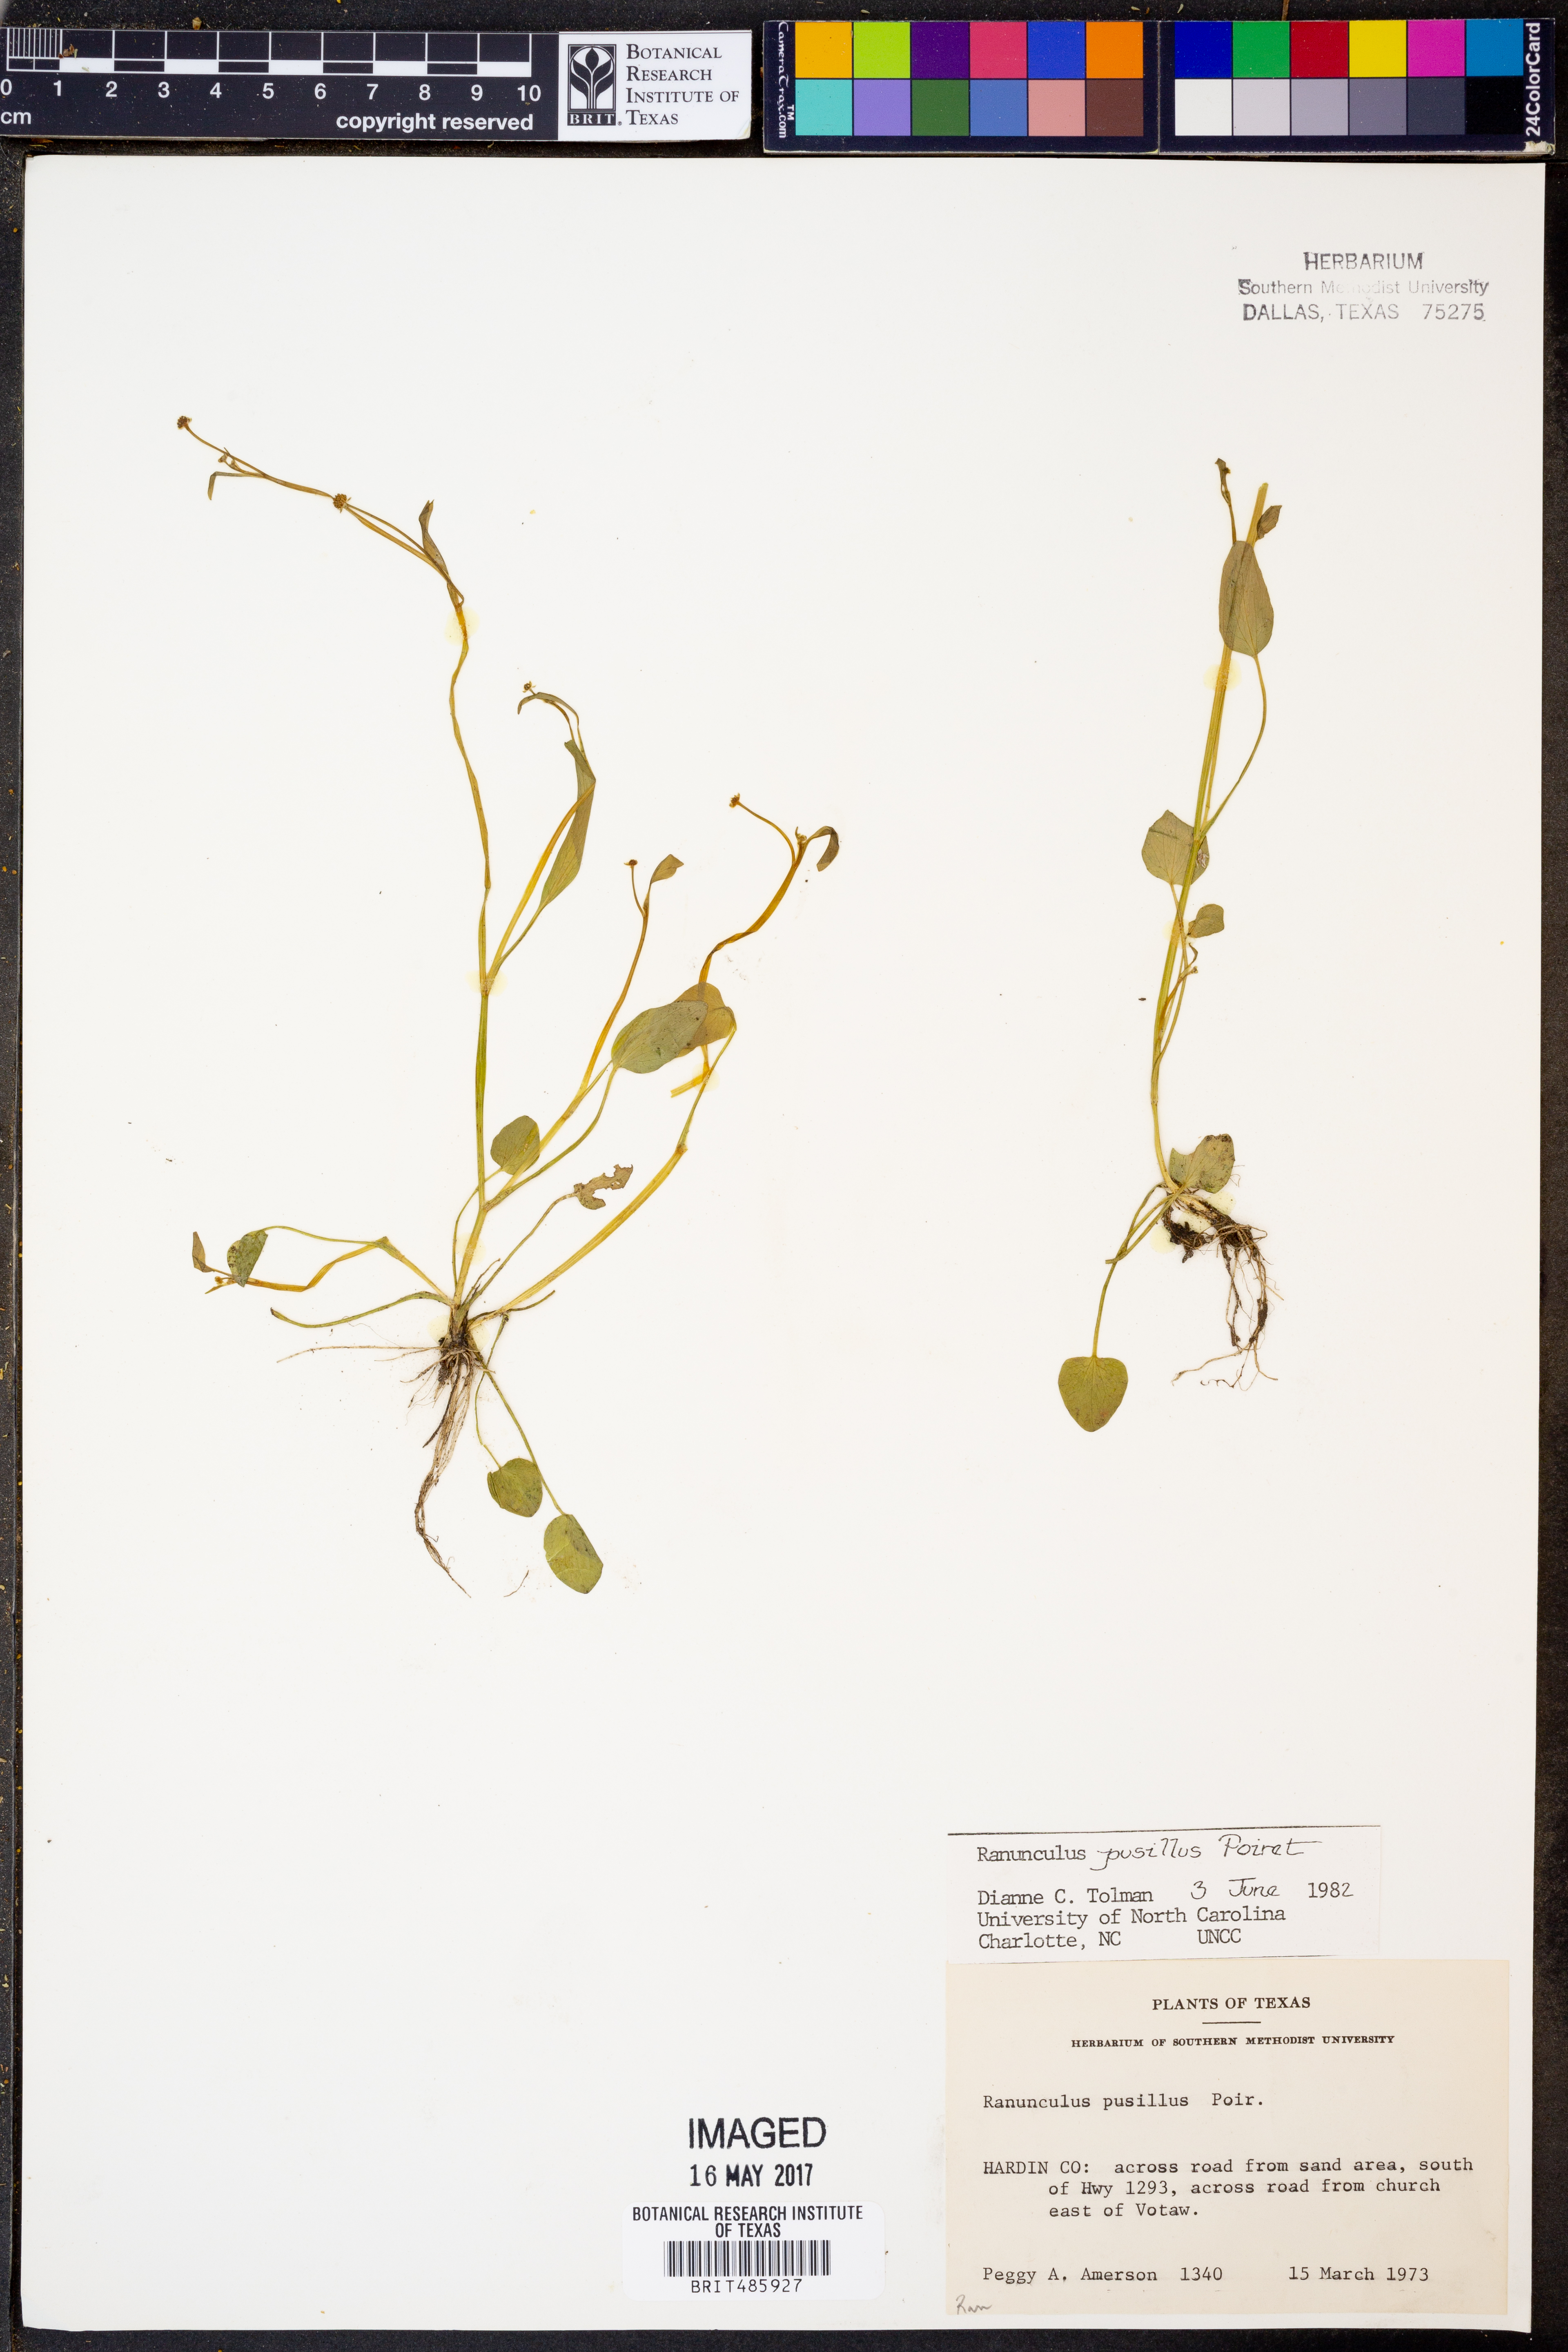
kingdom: Plantae
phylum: Tracheophyta
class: Magnoliopsida
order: Ranunculales
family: Ranunculaceae
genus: Ranunculus
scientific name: Ranunculus pusillus
